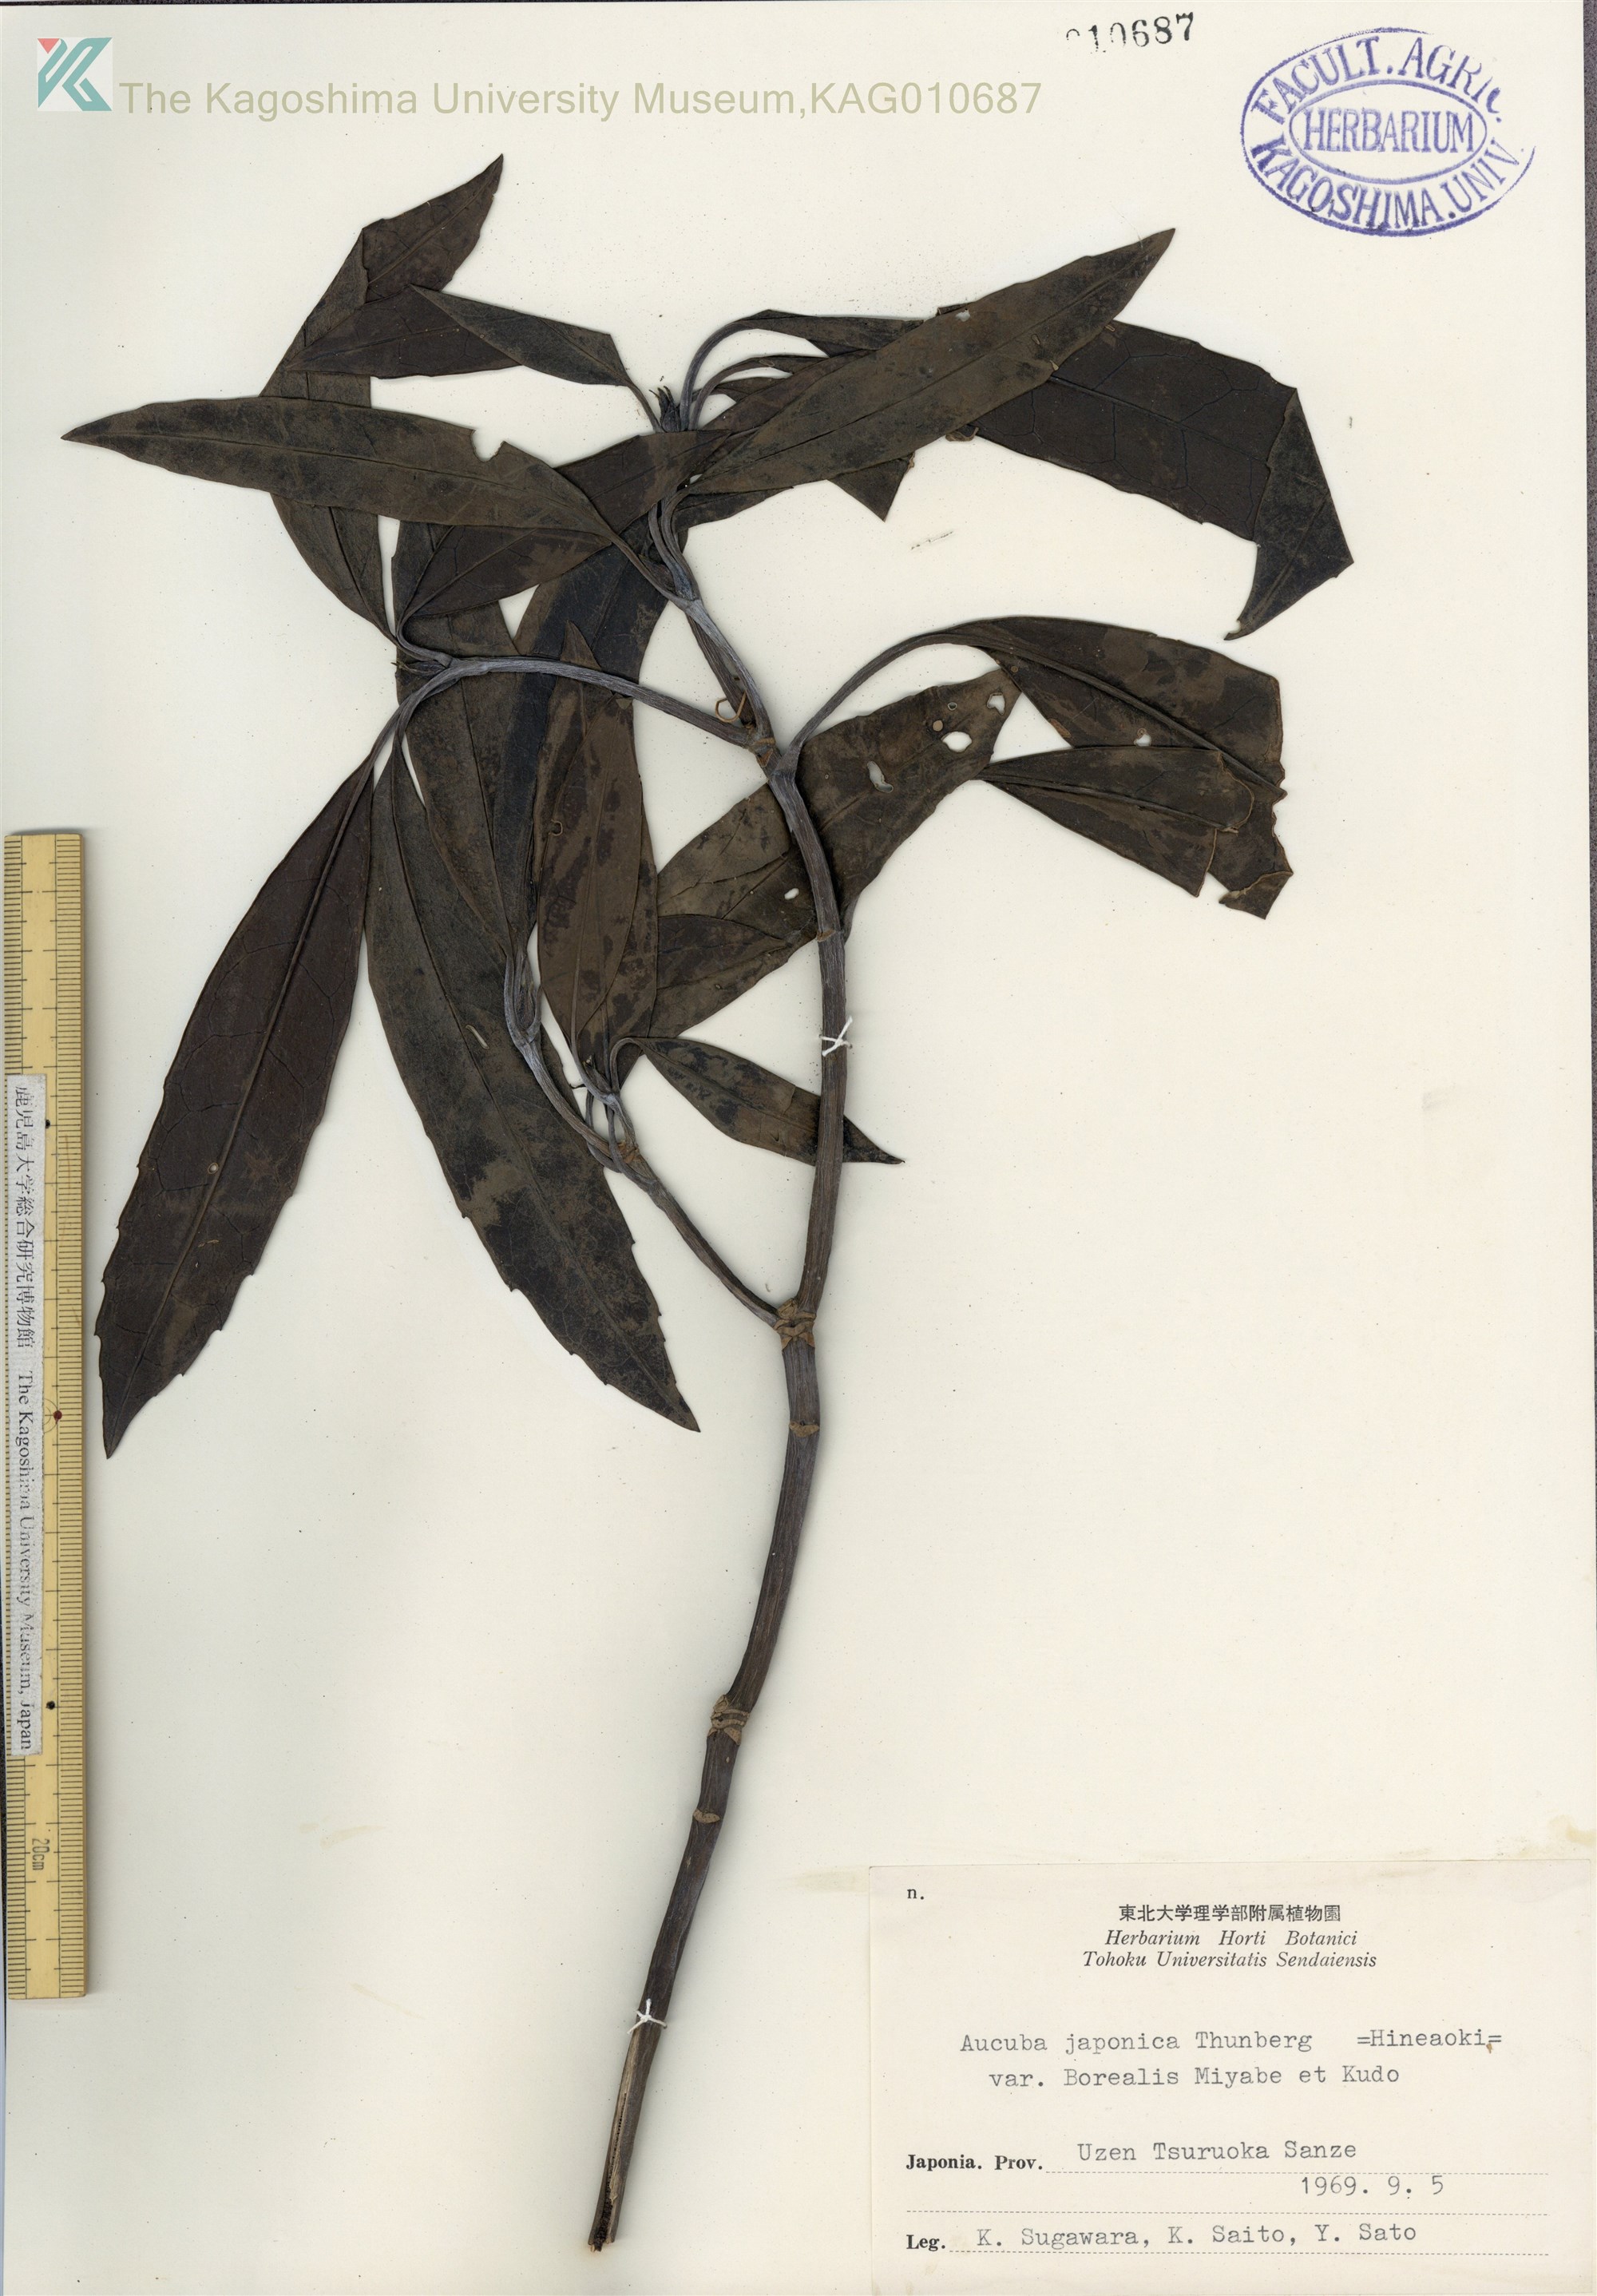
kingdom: Plantae
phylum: Tracheophyta
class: Magnoliopsida
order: Garryales
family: Garryaceae
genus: Aucuba
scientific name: Aucuba japonica
